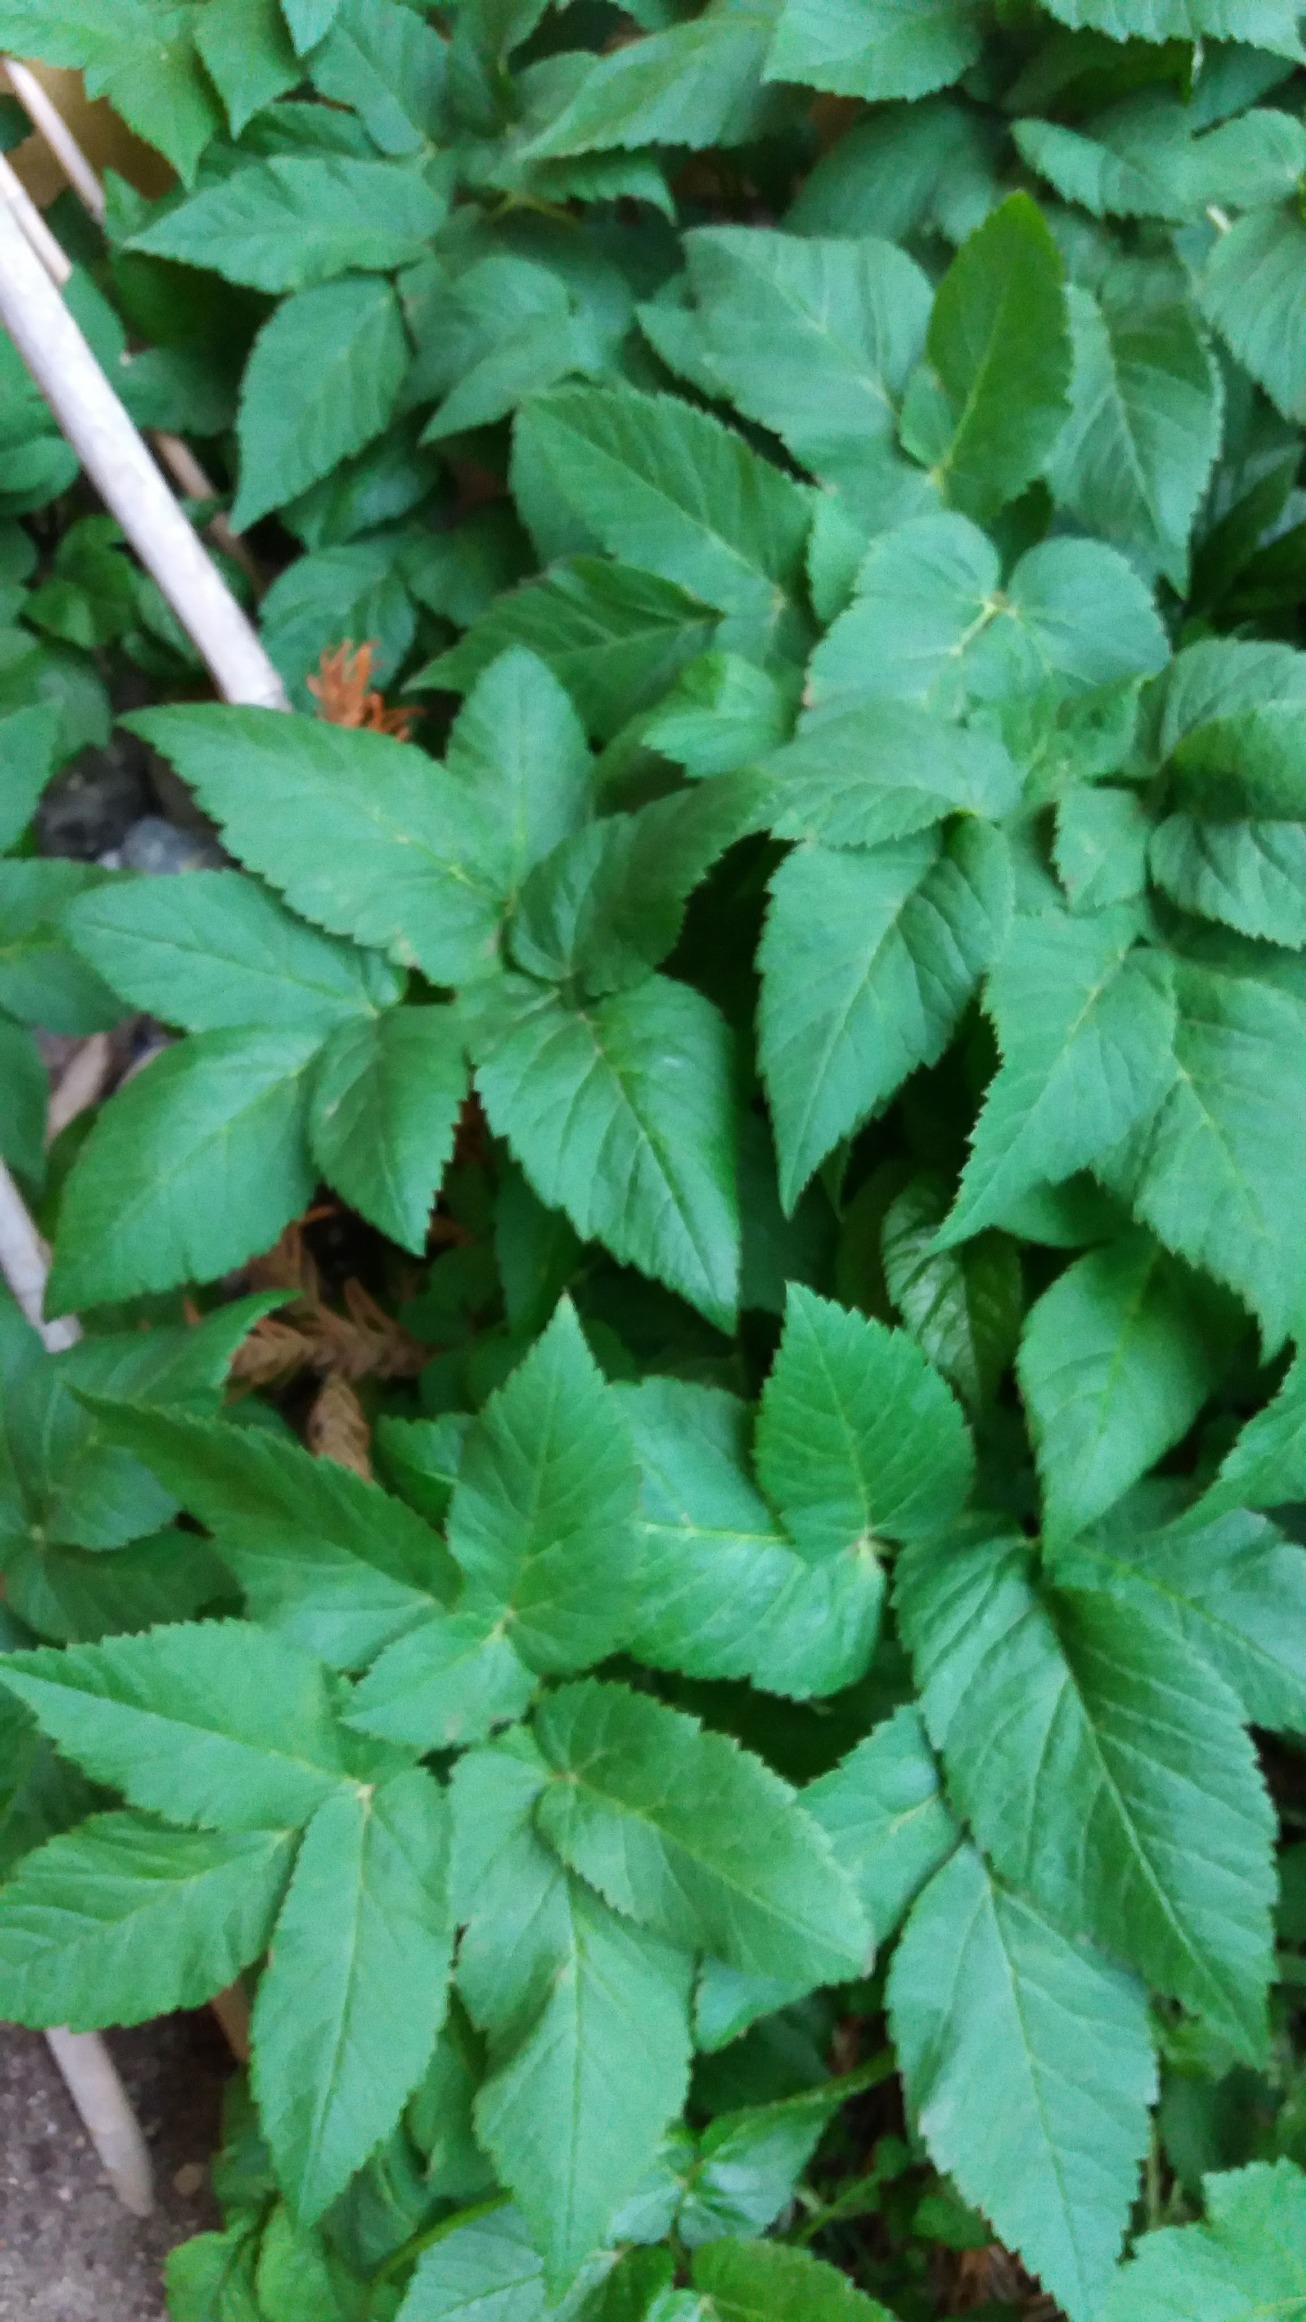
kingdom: Plantae
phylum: Tracheophyta
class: Magnoliopsida
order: Apiales
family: Apiaceae
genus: Aegopodium
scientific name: Aegopodium podagraria
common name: Skvalderkål
